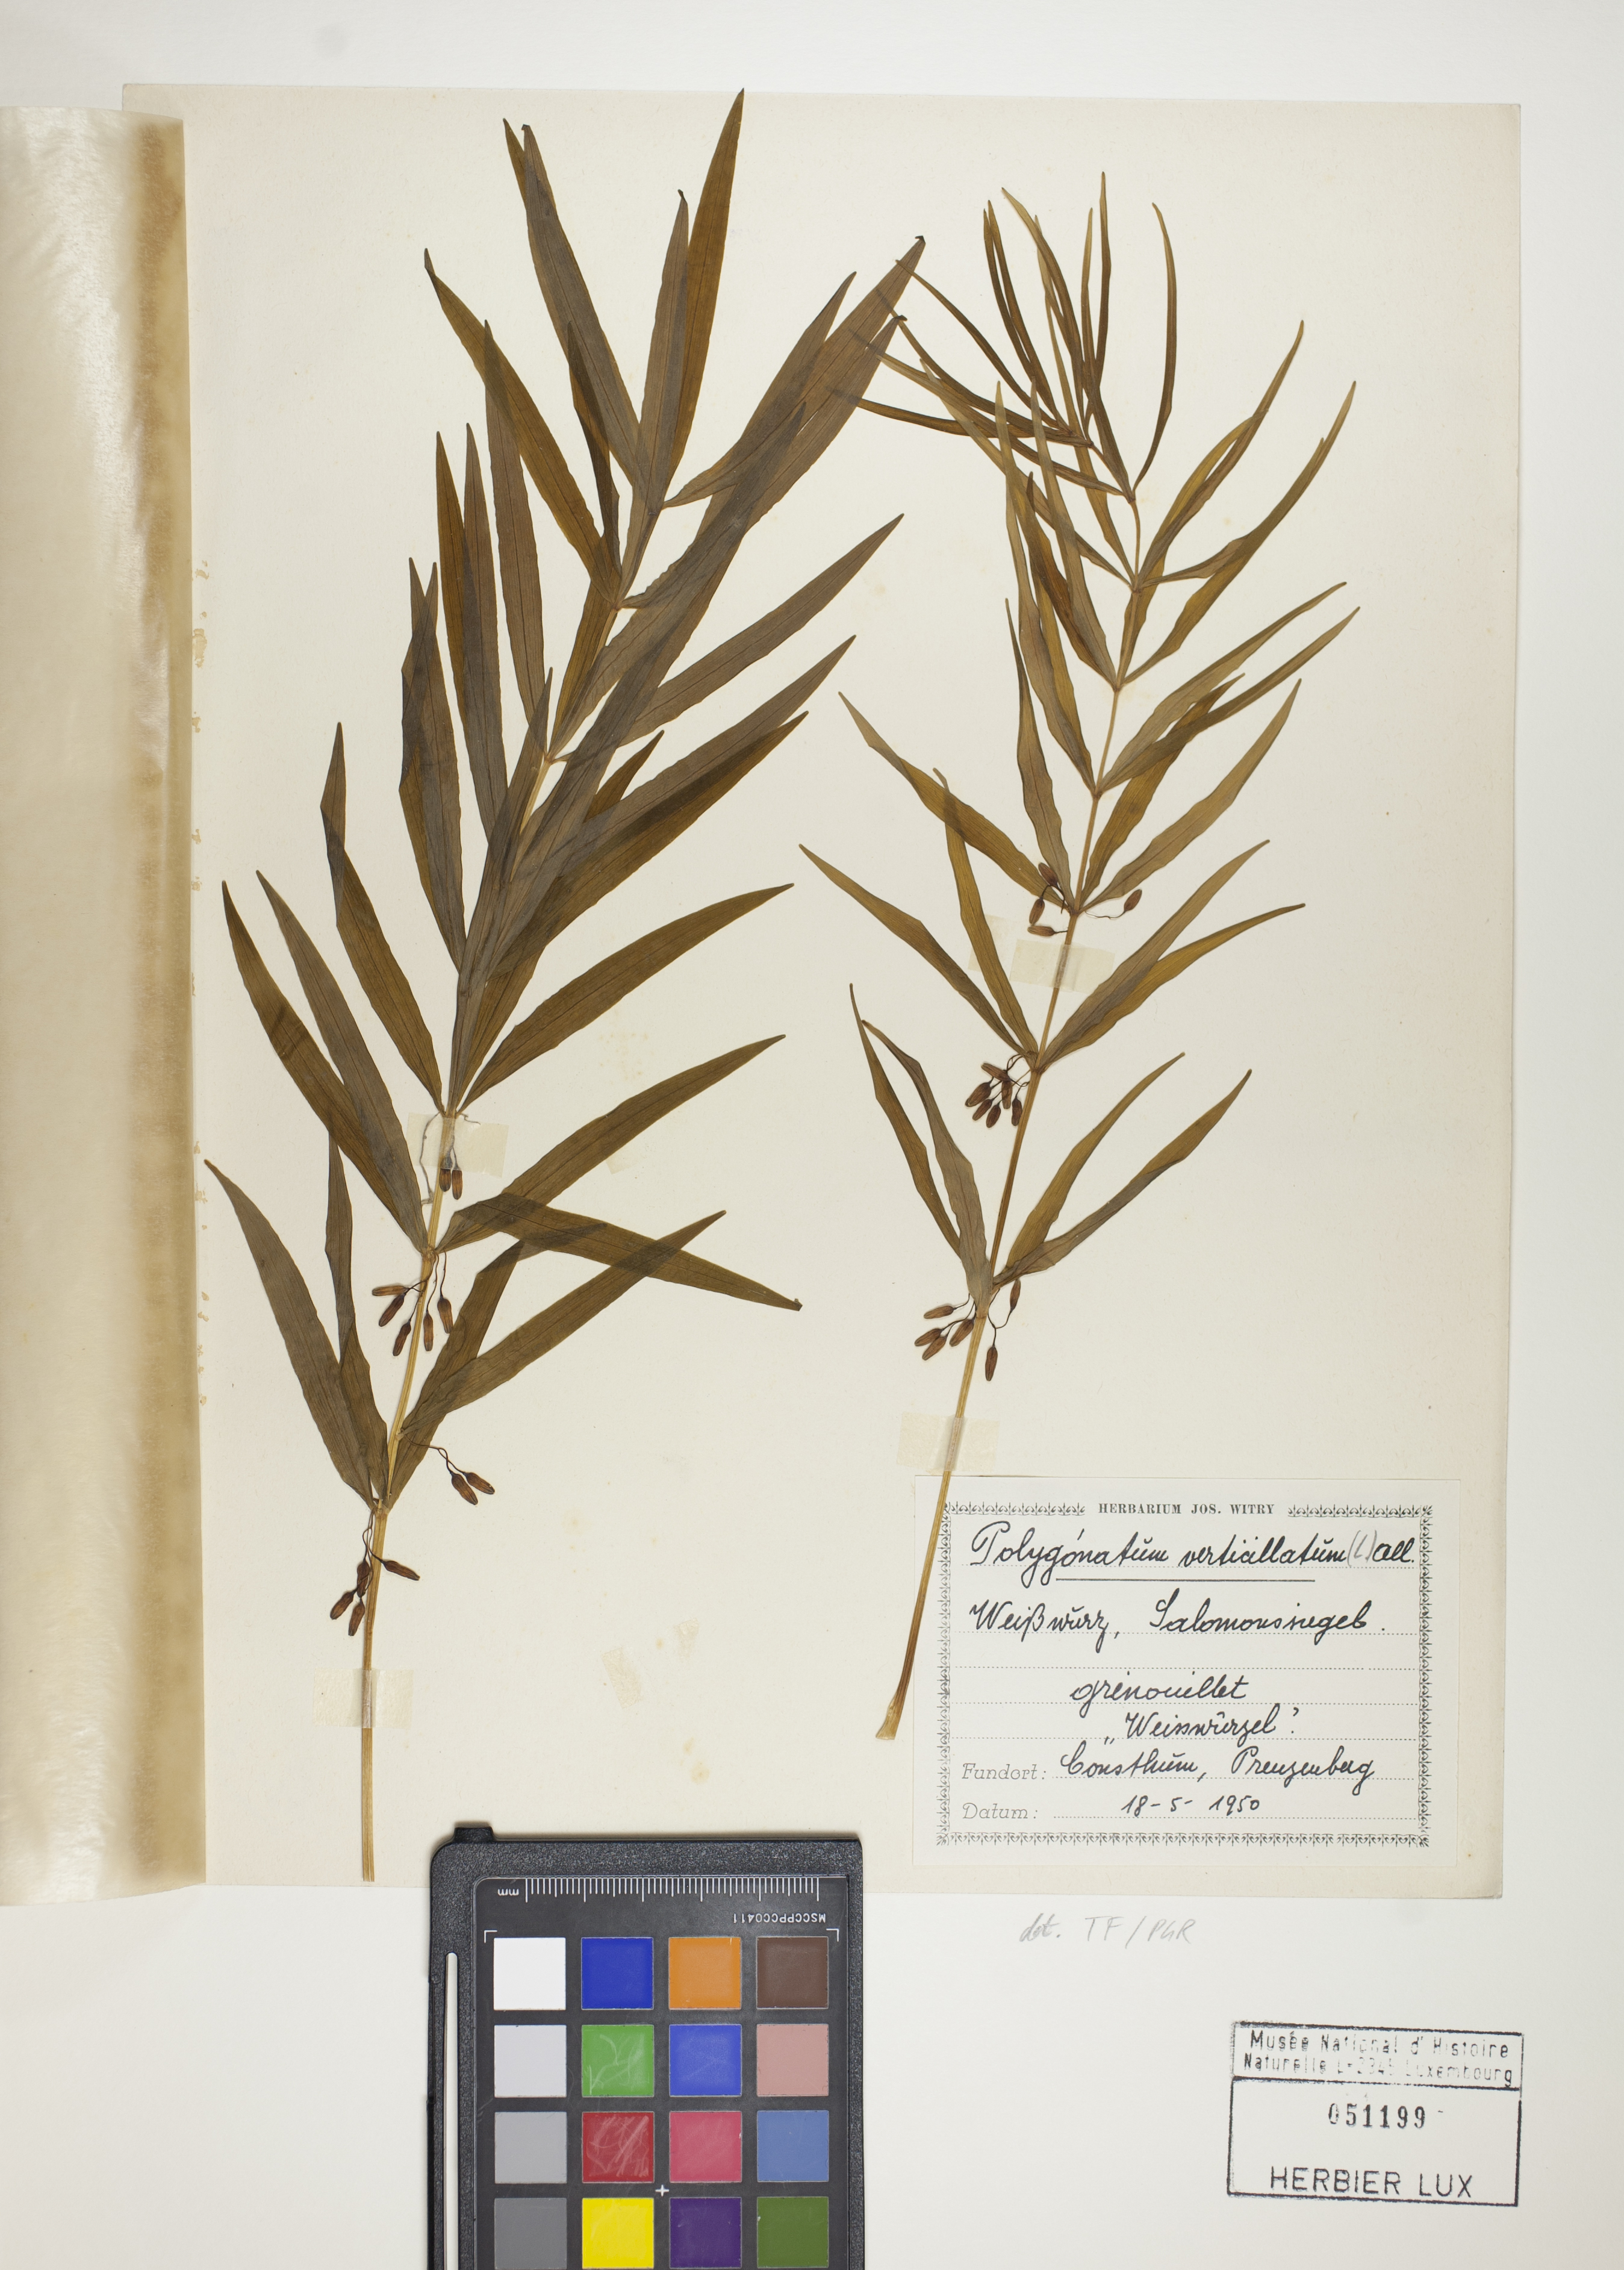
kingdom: Plantae
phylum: Tracheophyta
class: Liliopsida
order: Asparagales
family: Asparagaceae
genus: Polygonatum
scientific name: Polygonatum verticillatum
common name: Whorled solomon's-seal
